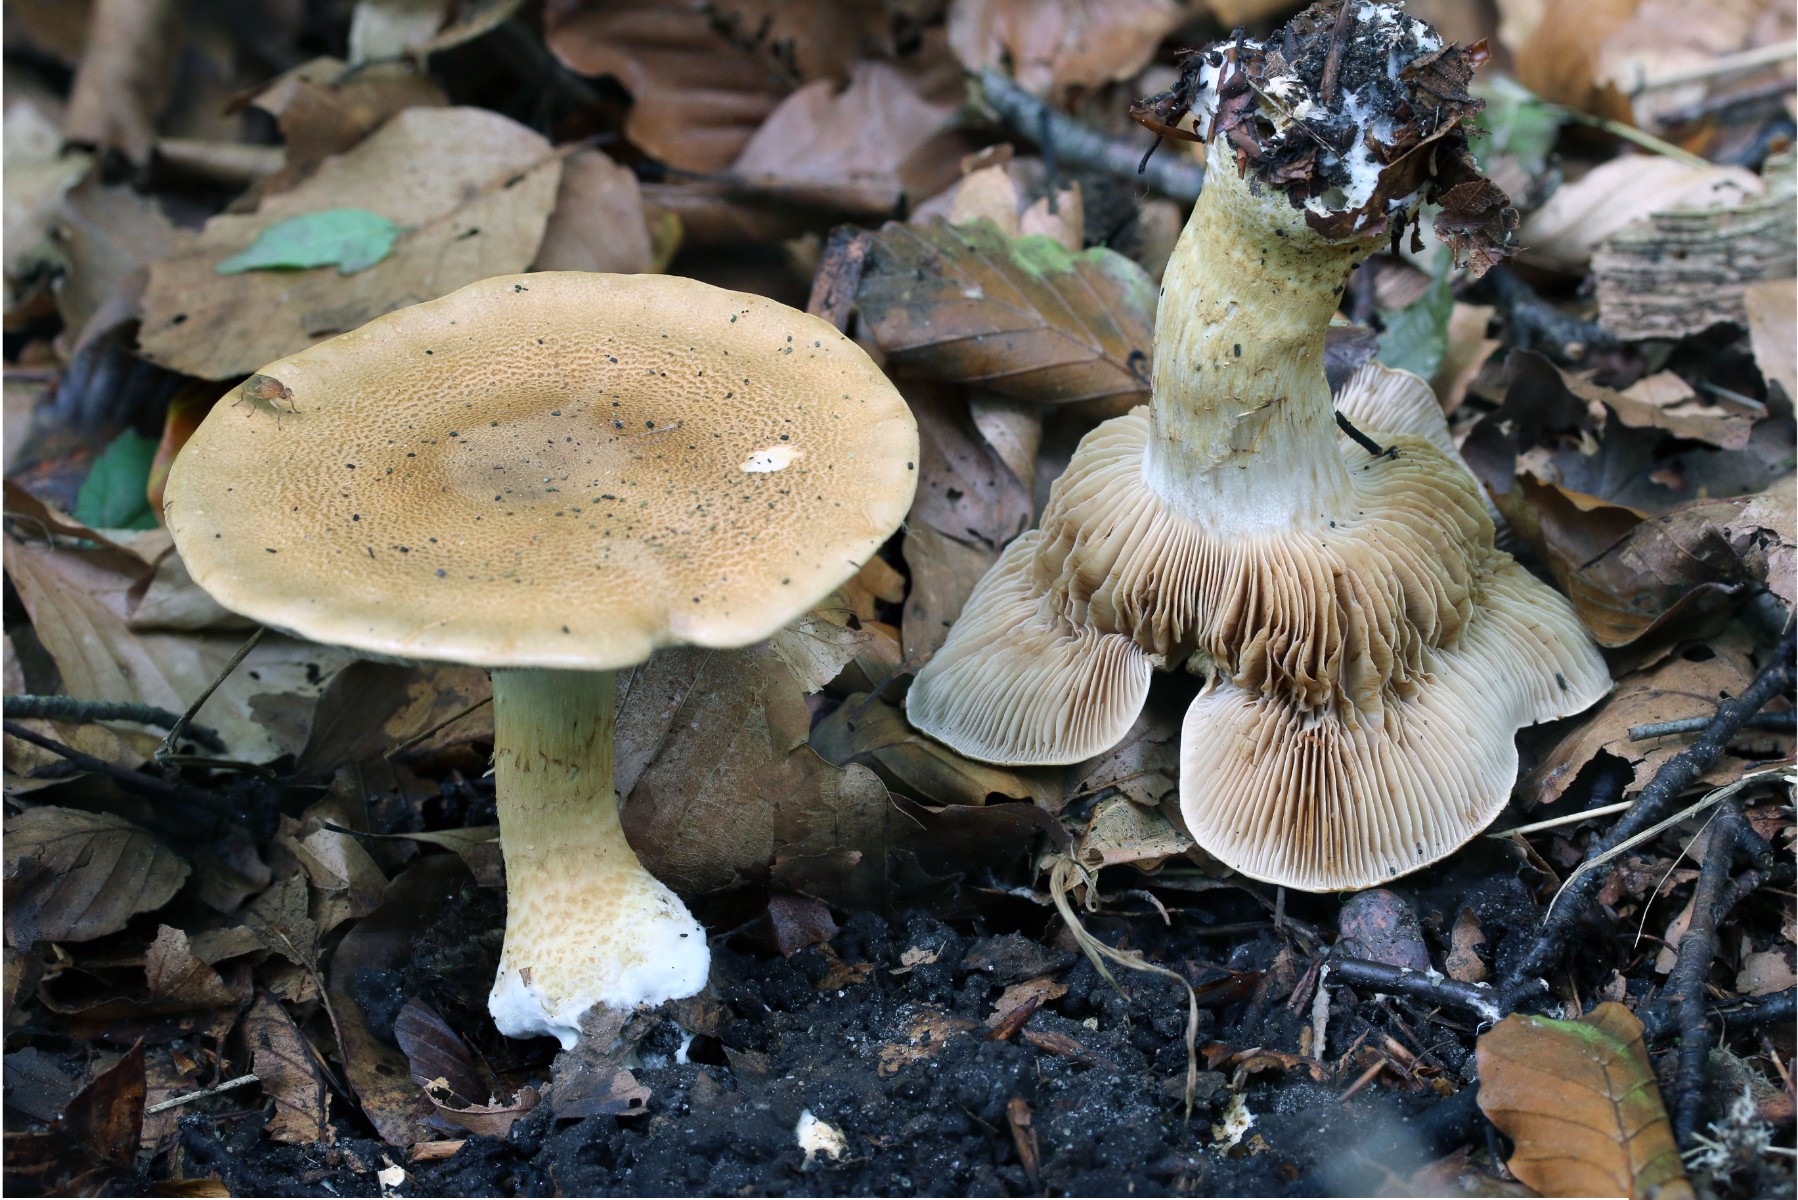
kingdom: Fungi
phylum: Basidiomycota
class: Agaricomycetes
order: Agaricales
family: Cortinariaceae
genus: Phlegmacium
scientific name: Phlegmacium cliduchus
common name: majs-slørhat
